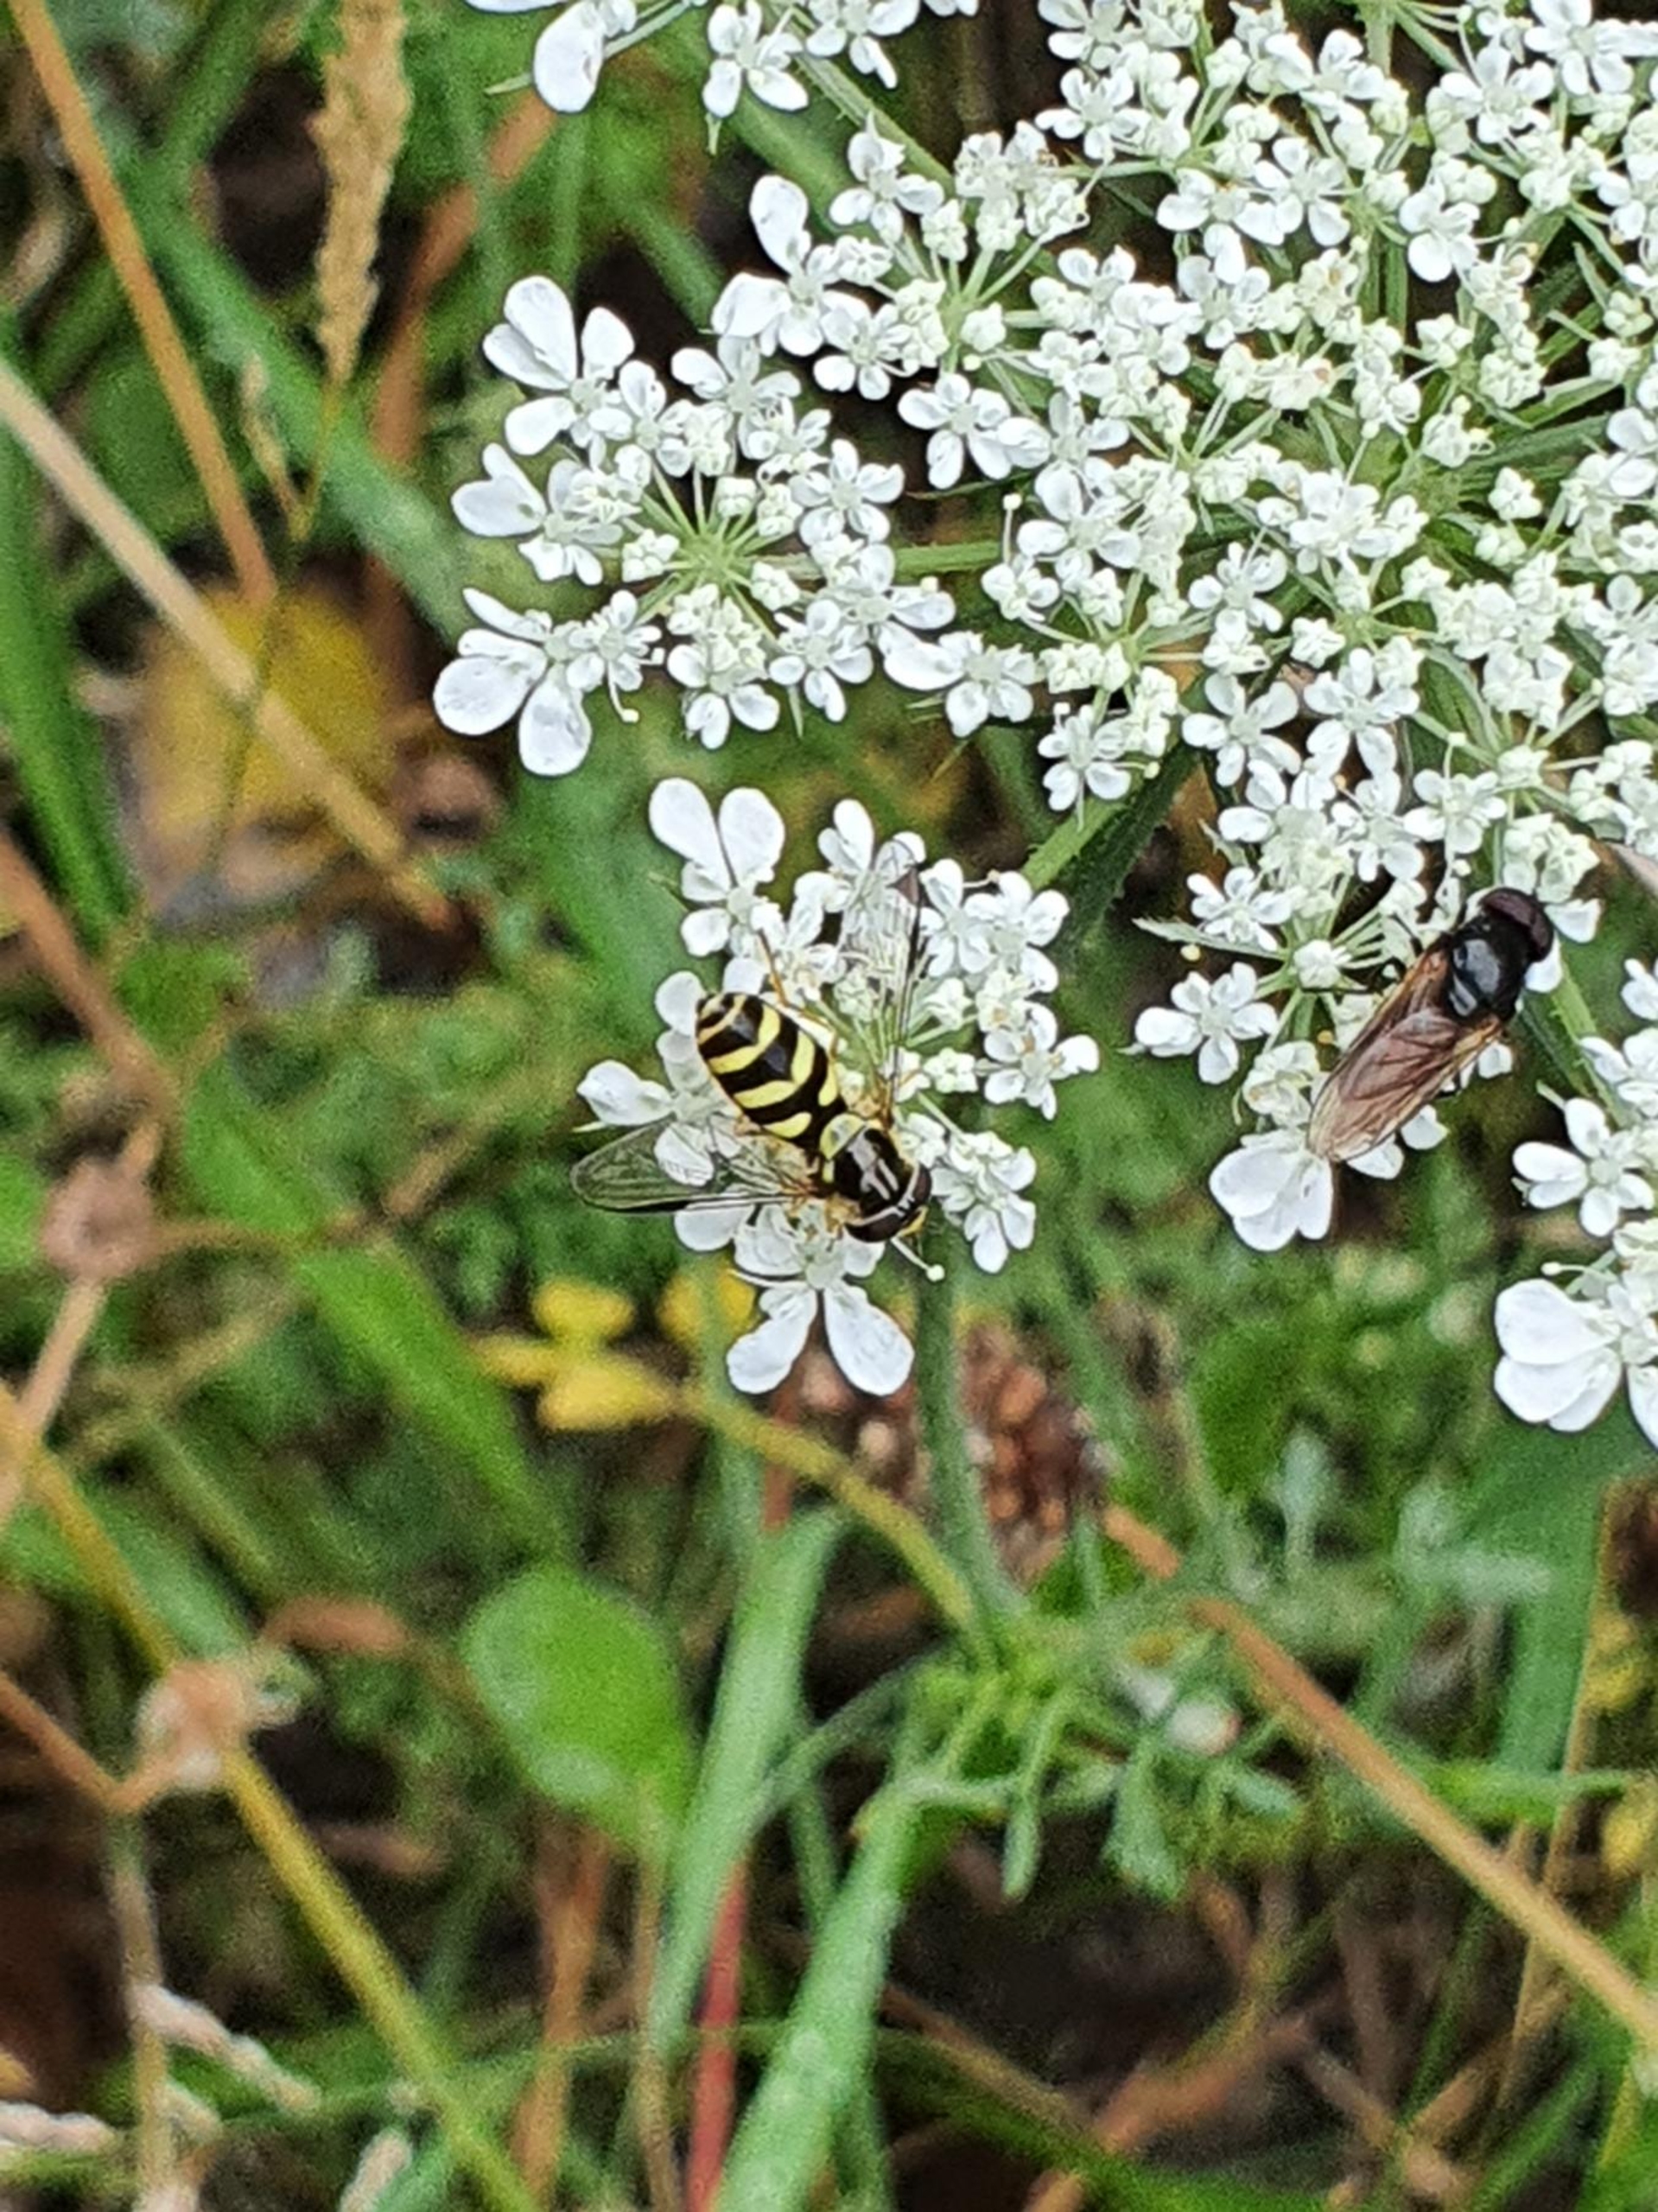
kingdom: Animalia
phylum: Arthropoda
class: Insecta
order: Diptera
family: Syrphidae
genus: Dasysyrphus
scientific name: Dasysyrphus albostriatus
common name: Stribet skovsvirreflue
